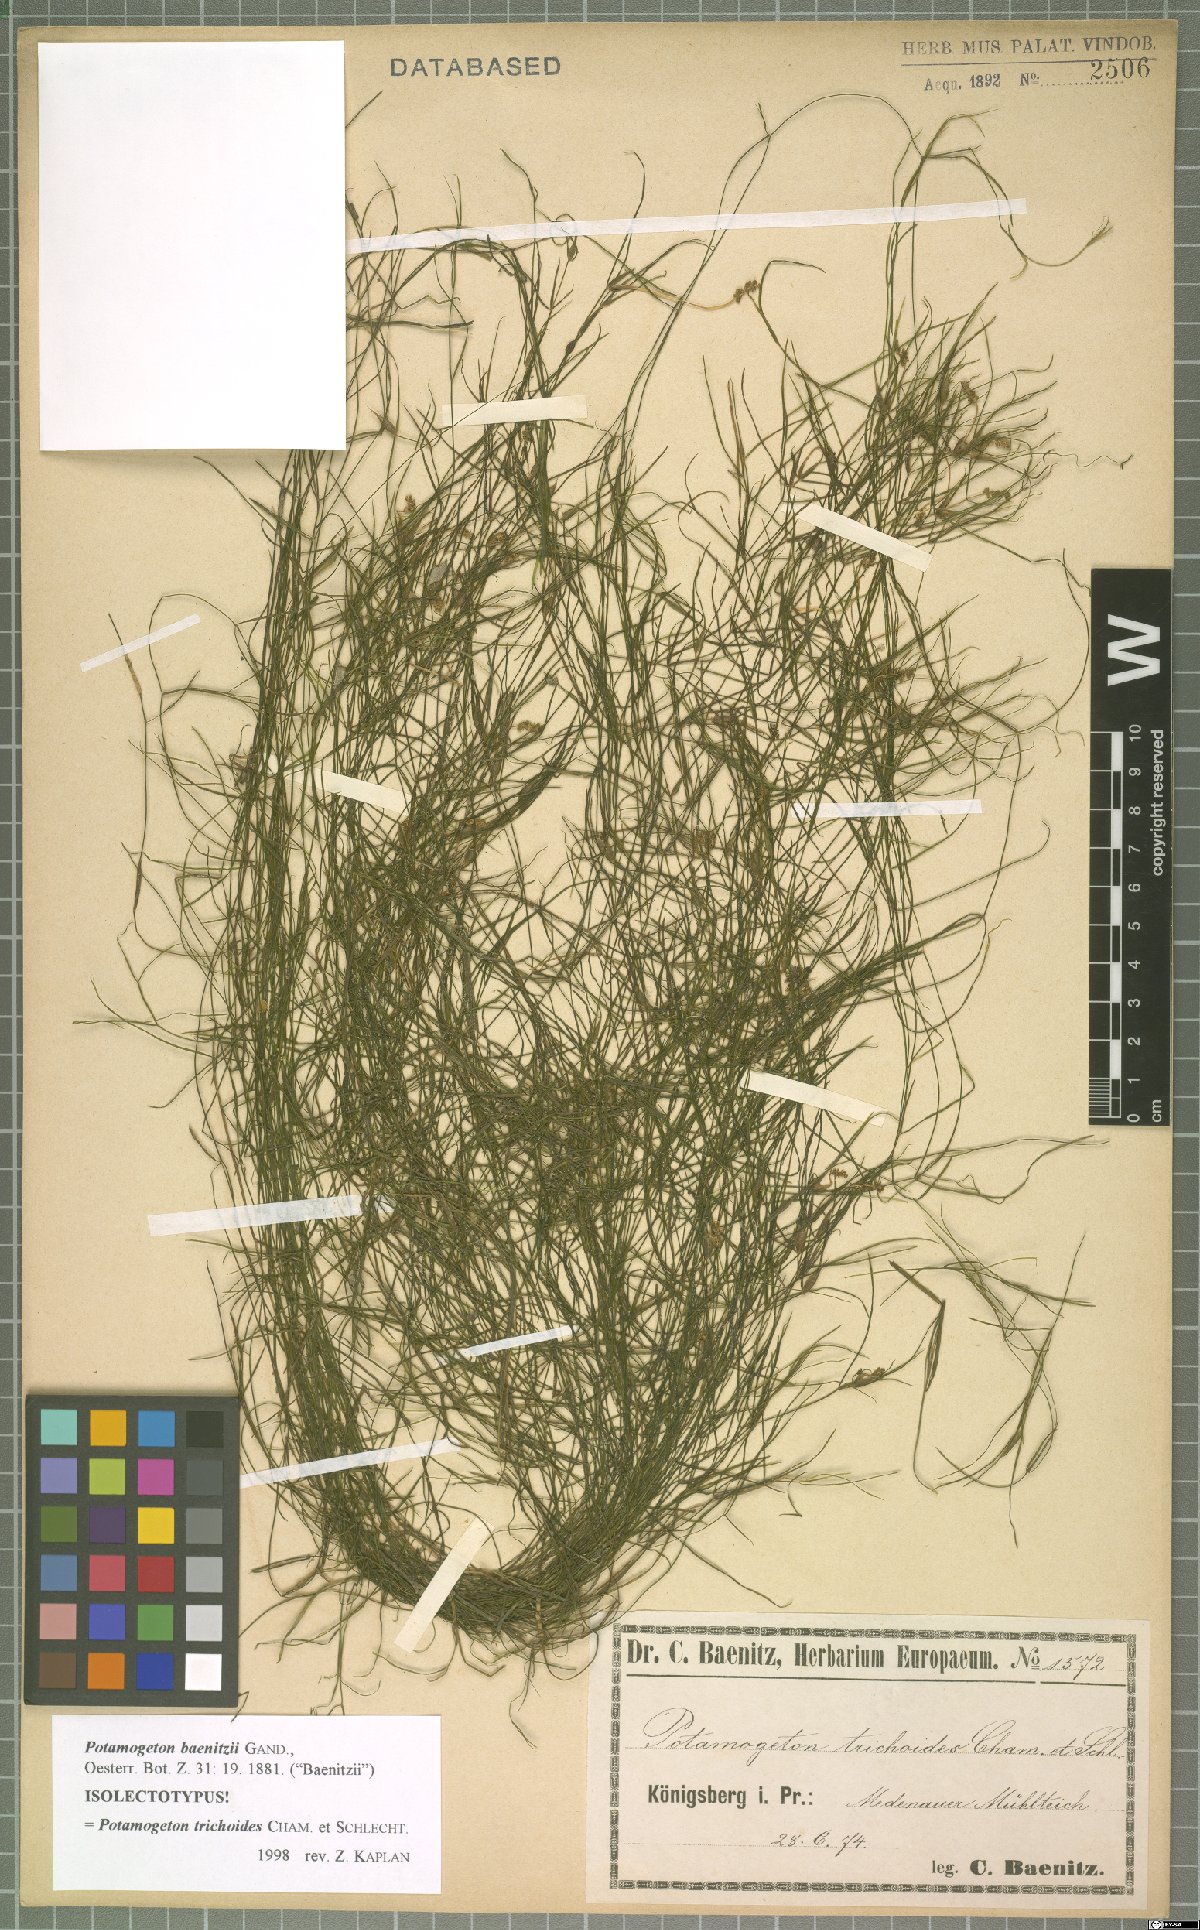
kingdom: Plantae
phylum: Tracheophyta
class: Liliopsida
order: Alismatales
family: Potamogetonaceae
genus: Potamogeton
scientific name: Potamogeton trichoides
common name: Hairlike pondweed
